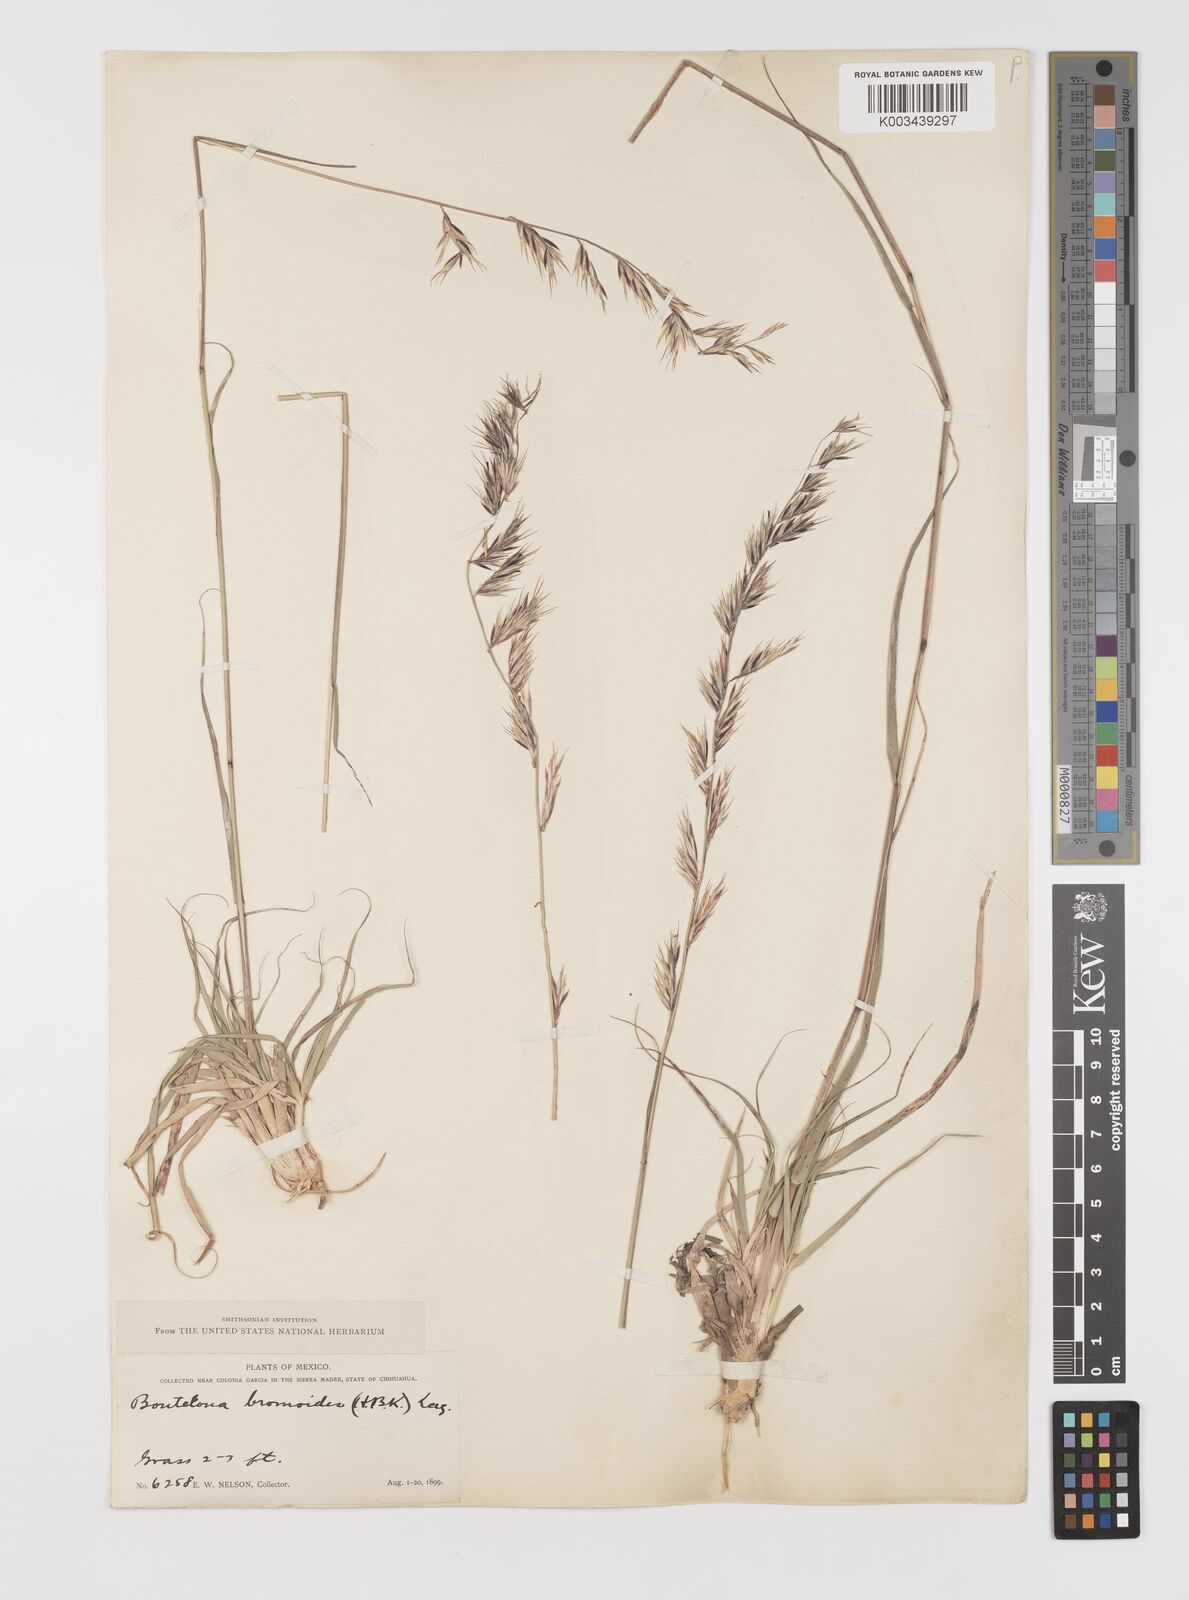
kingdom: Plantae
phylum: Tracheophyta
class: Liliopsida
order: Poales
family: Poaceae
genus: Bouteloua
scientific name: Bouteloua repens
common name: Slender grama
